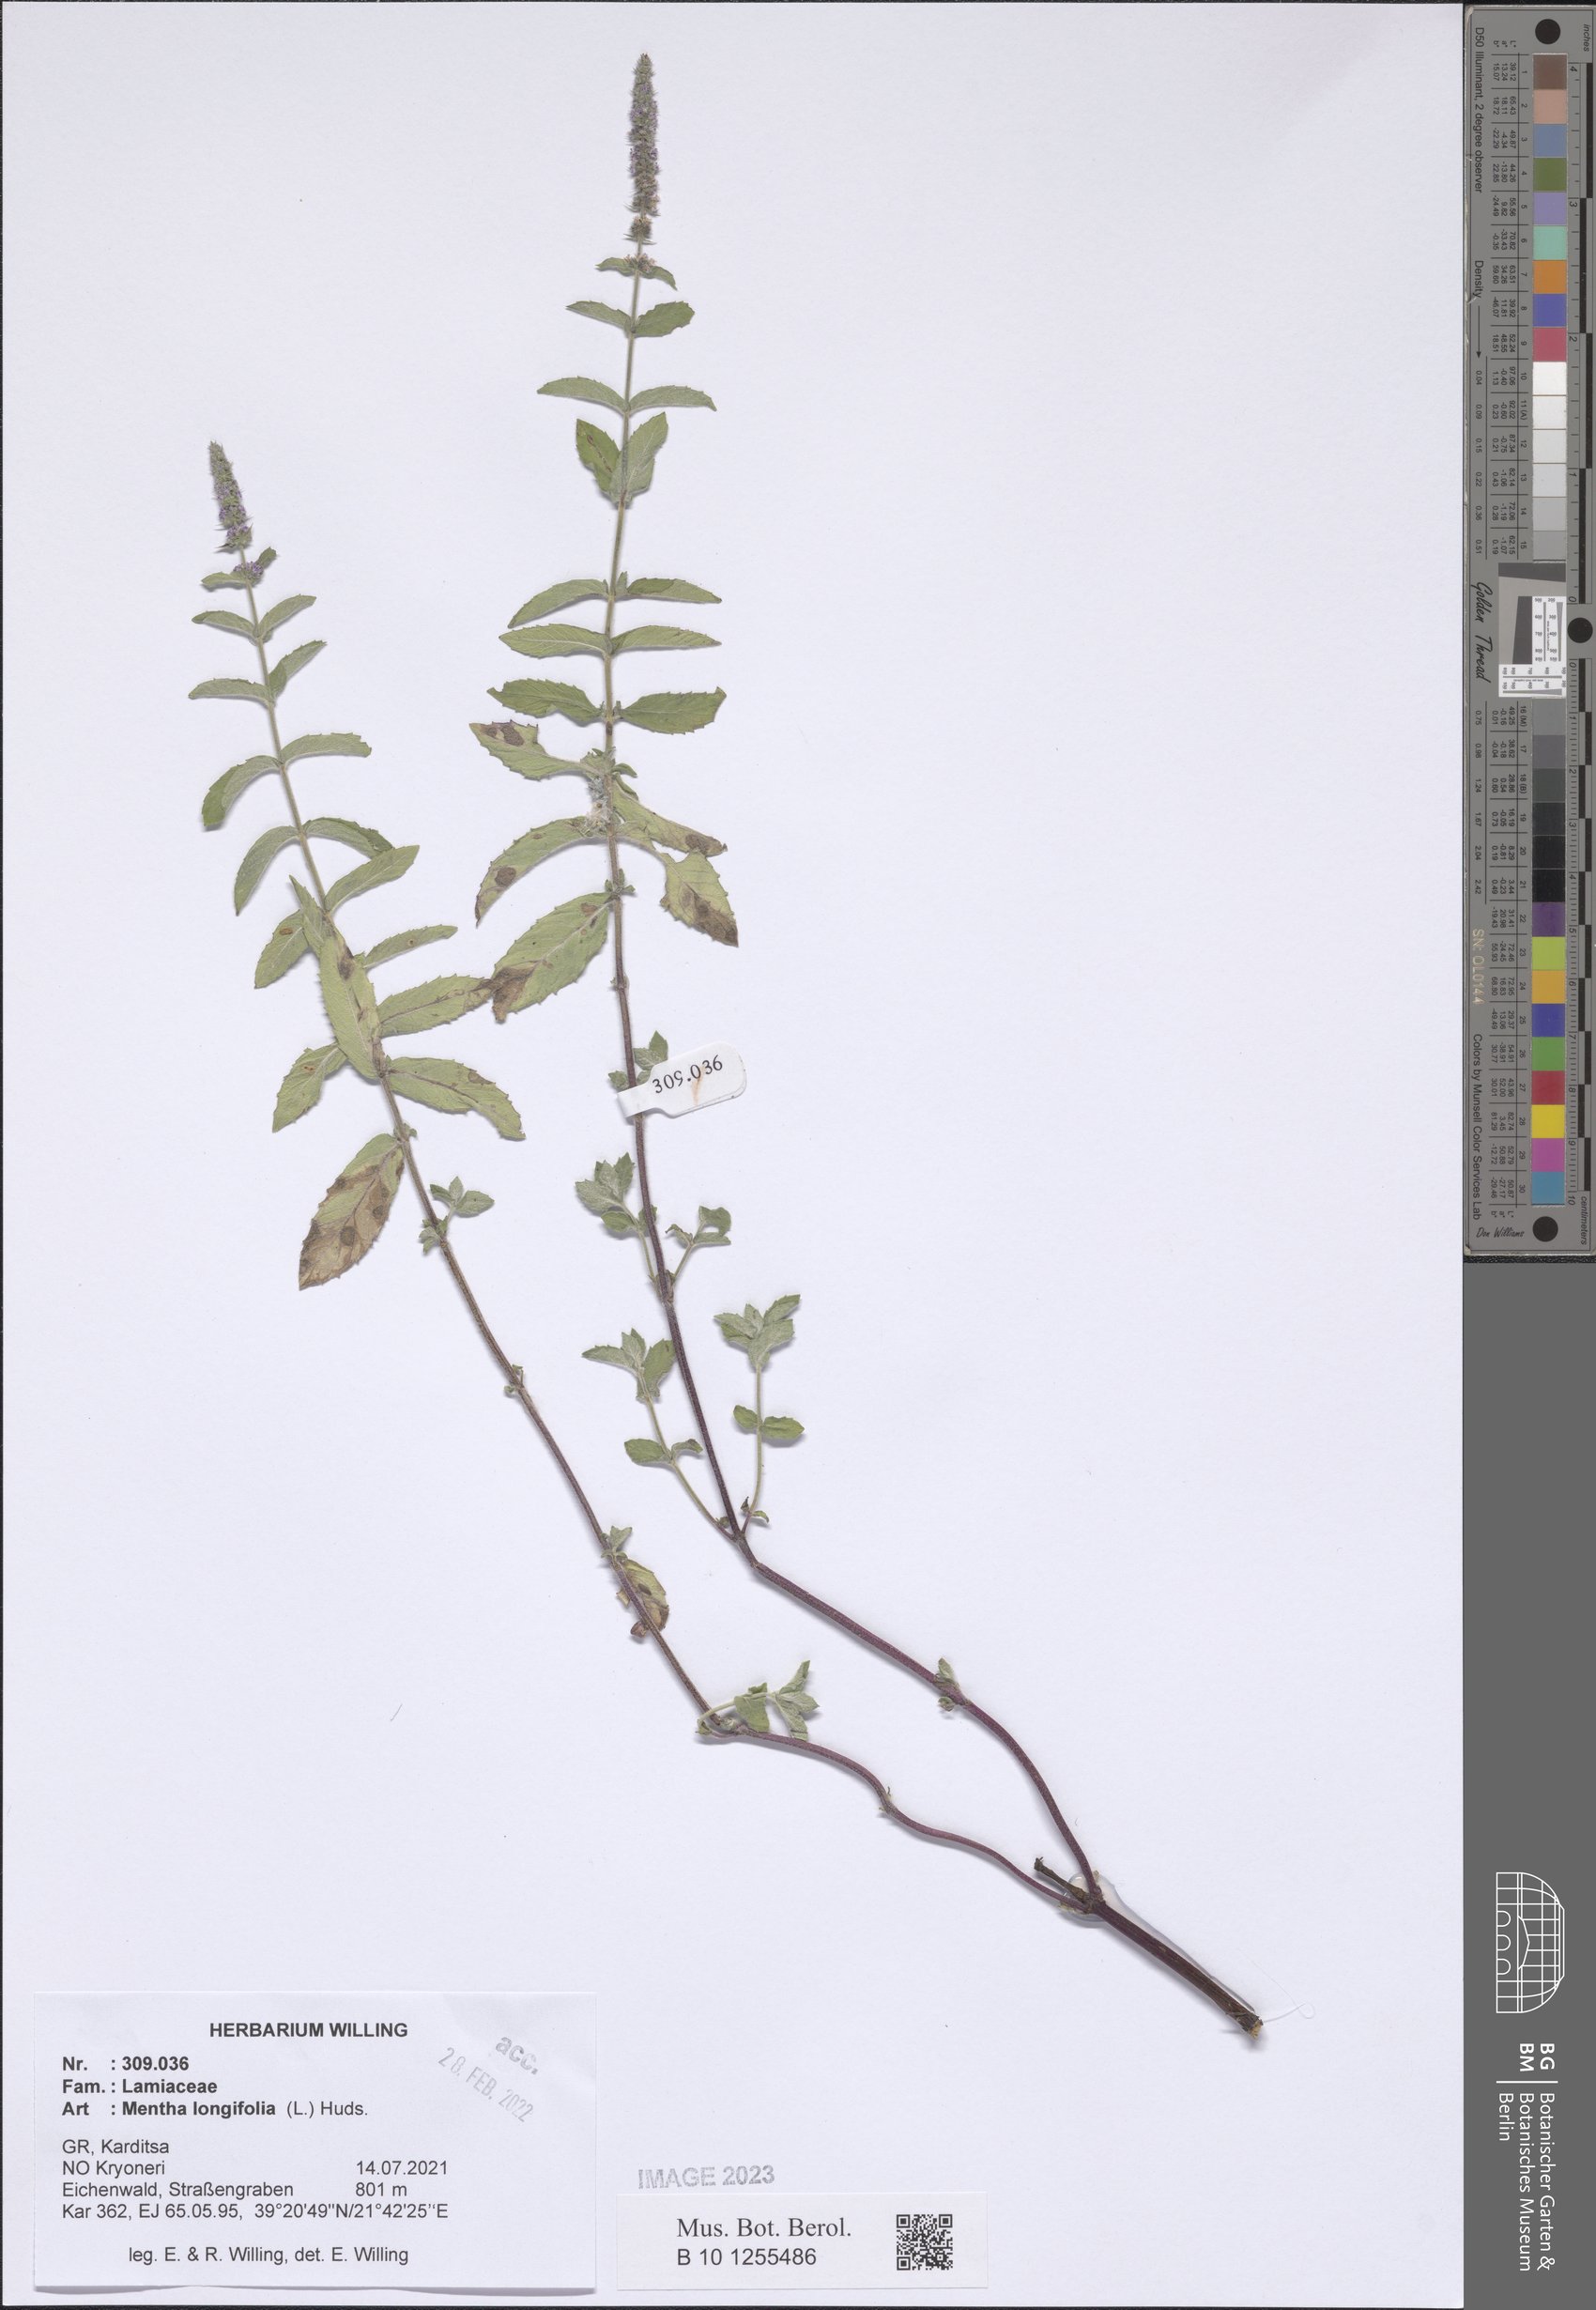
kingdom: Plantae
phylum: Tracheophyta
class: Magnoliopsida
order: Lamiales
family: Lamiaceae
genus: Mentha
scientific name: Mentha longifolia
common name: Horse mint
